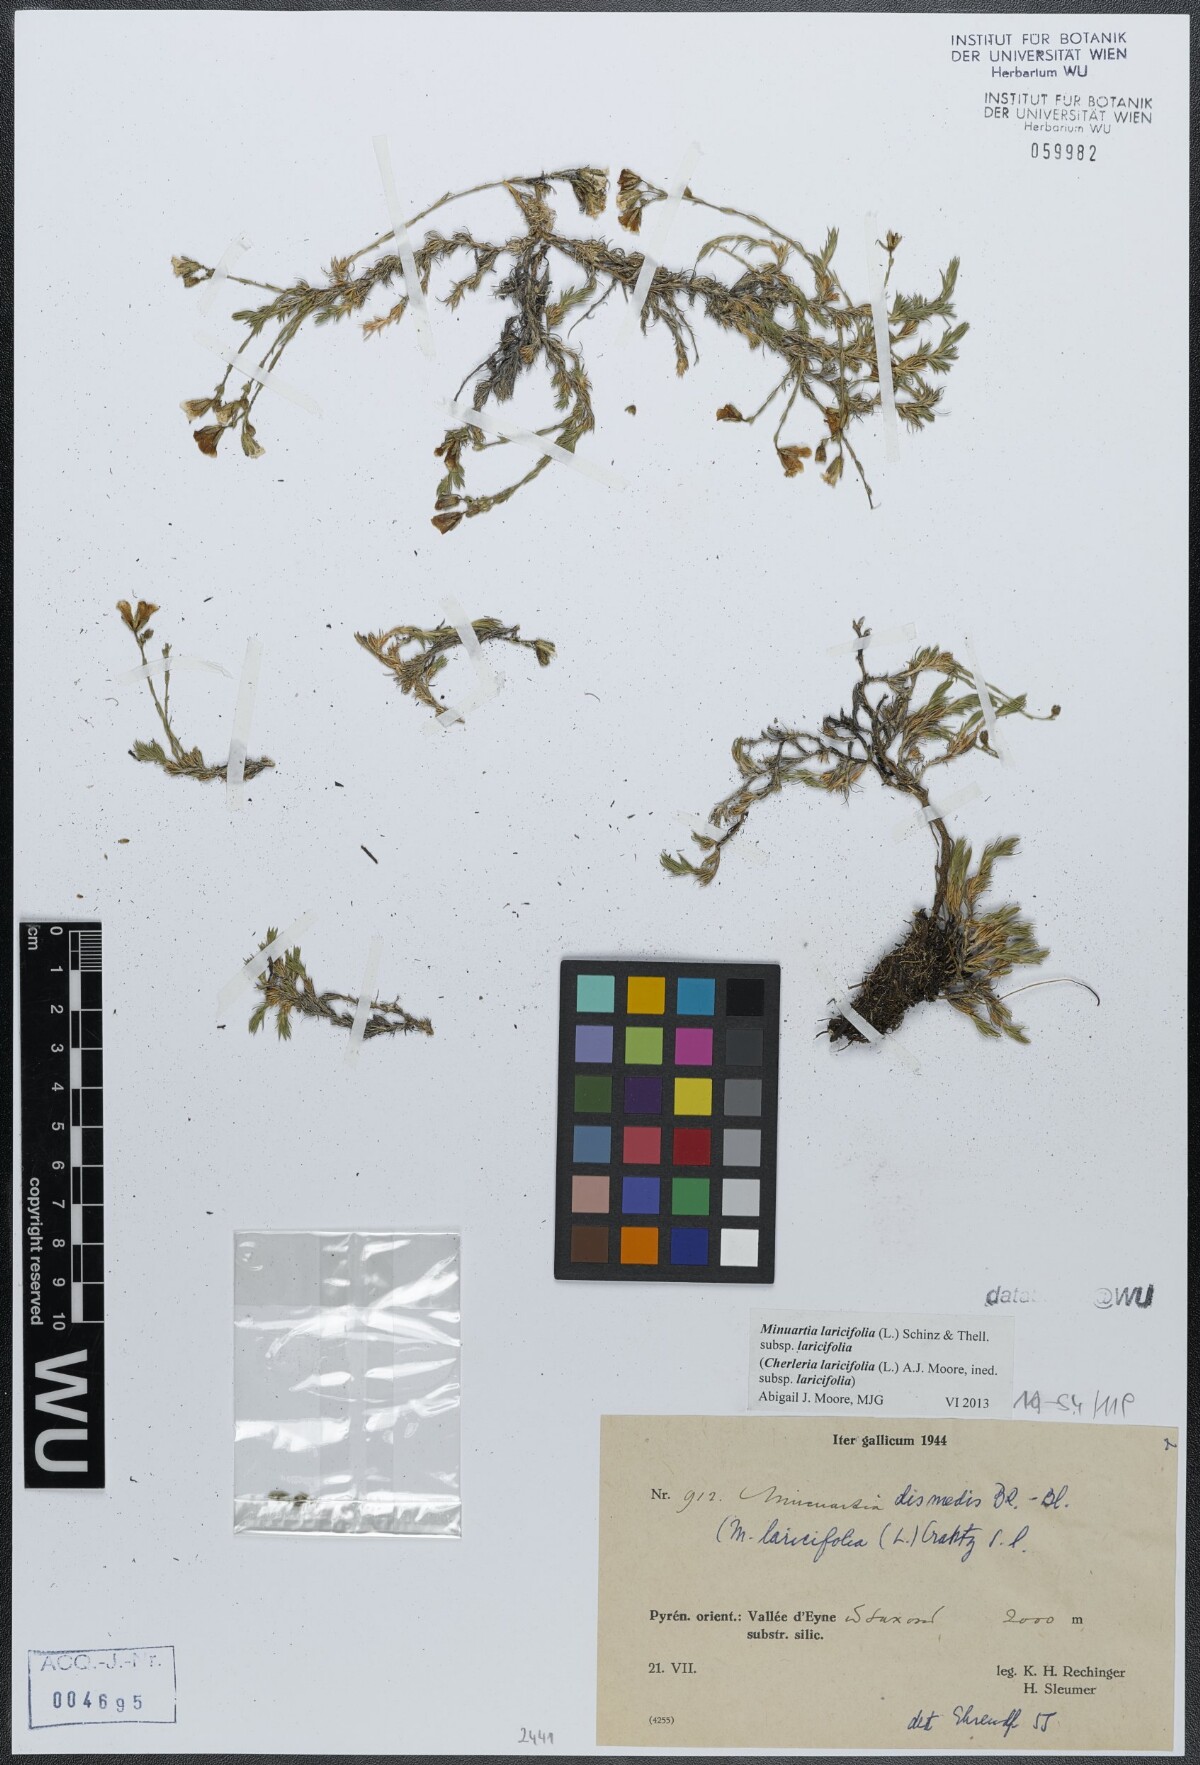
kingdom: Plantae
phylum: Tracheophyta
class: Magnoliopsida
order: Caryophyllales
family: Caryophyllaceae
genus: Cherleria
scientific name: Cherleria laricifolia
